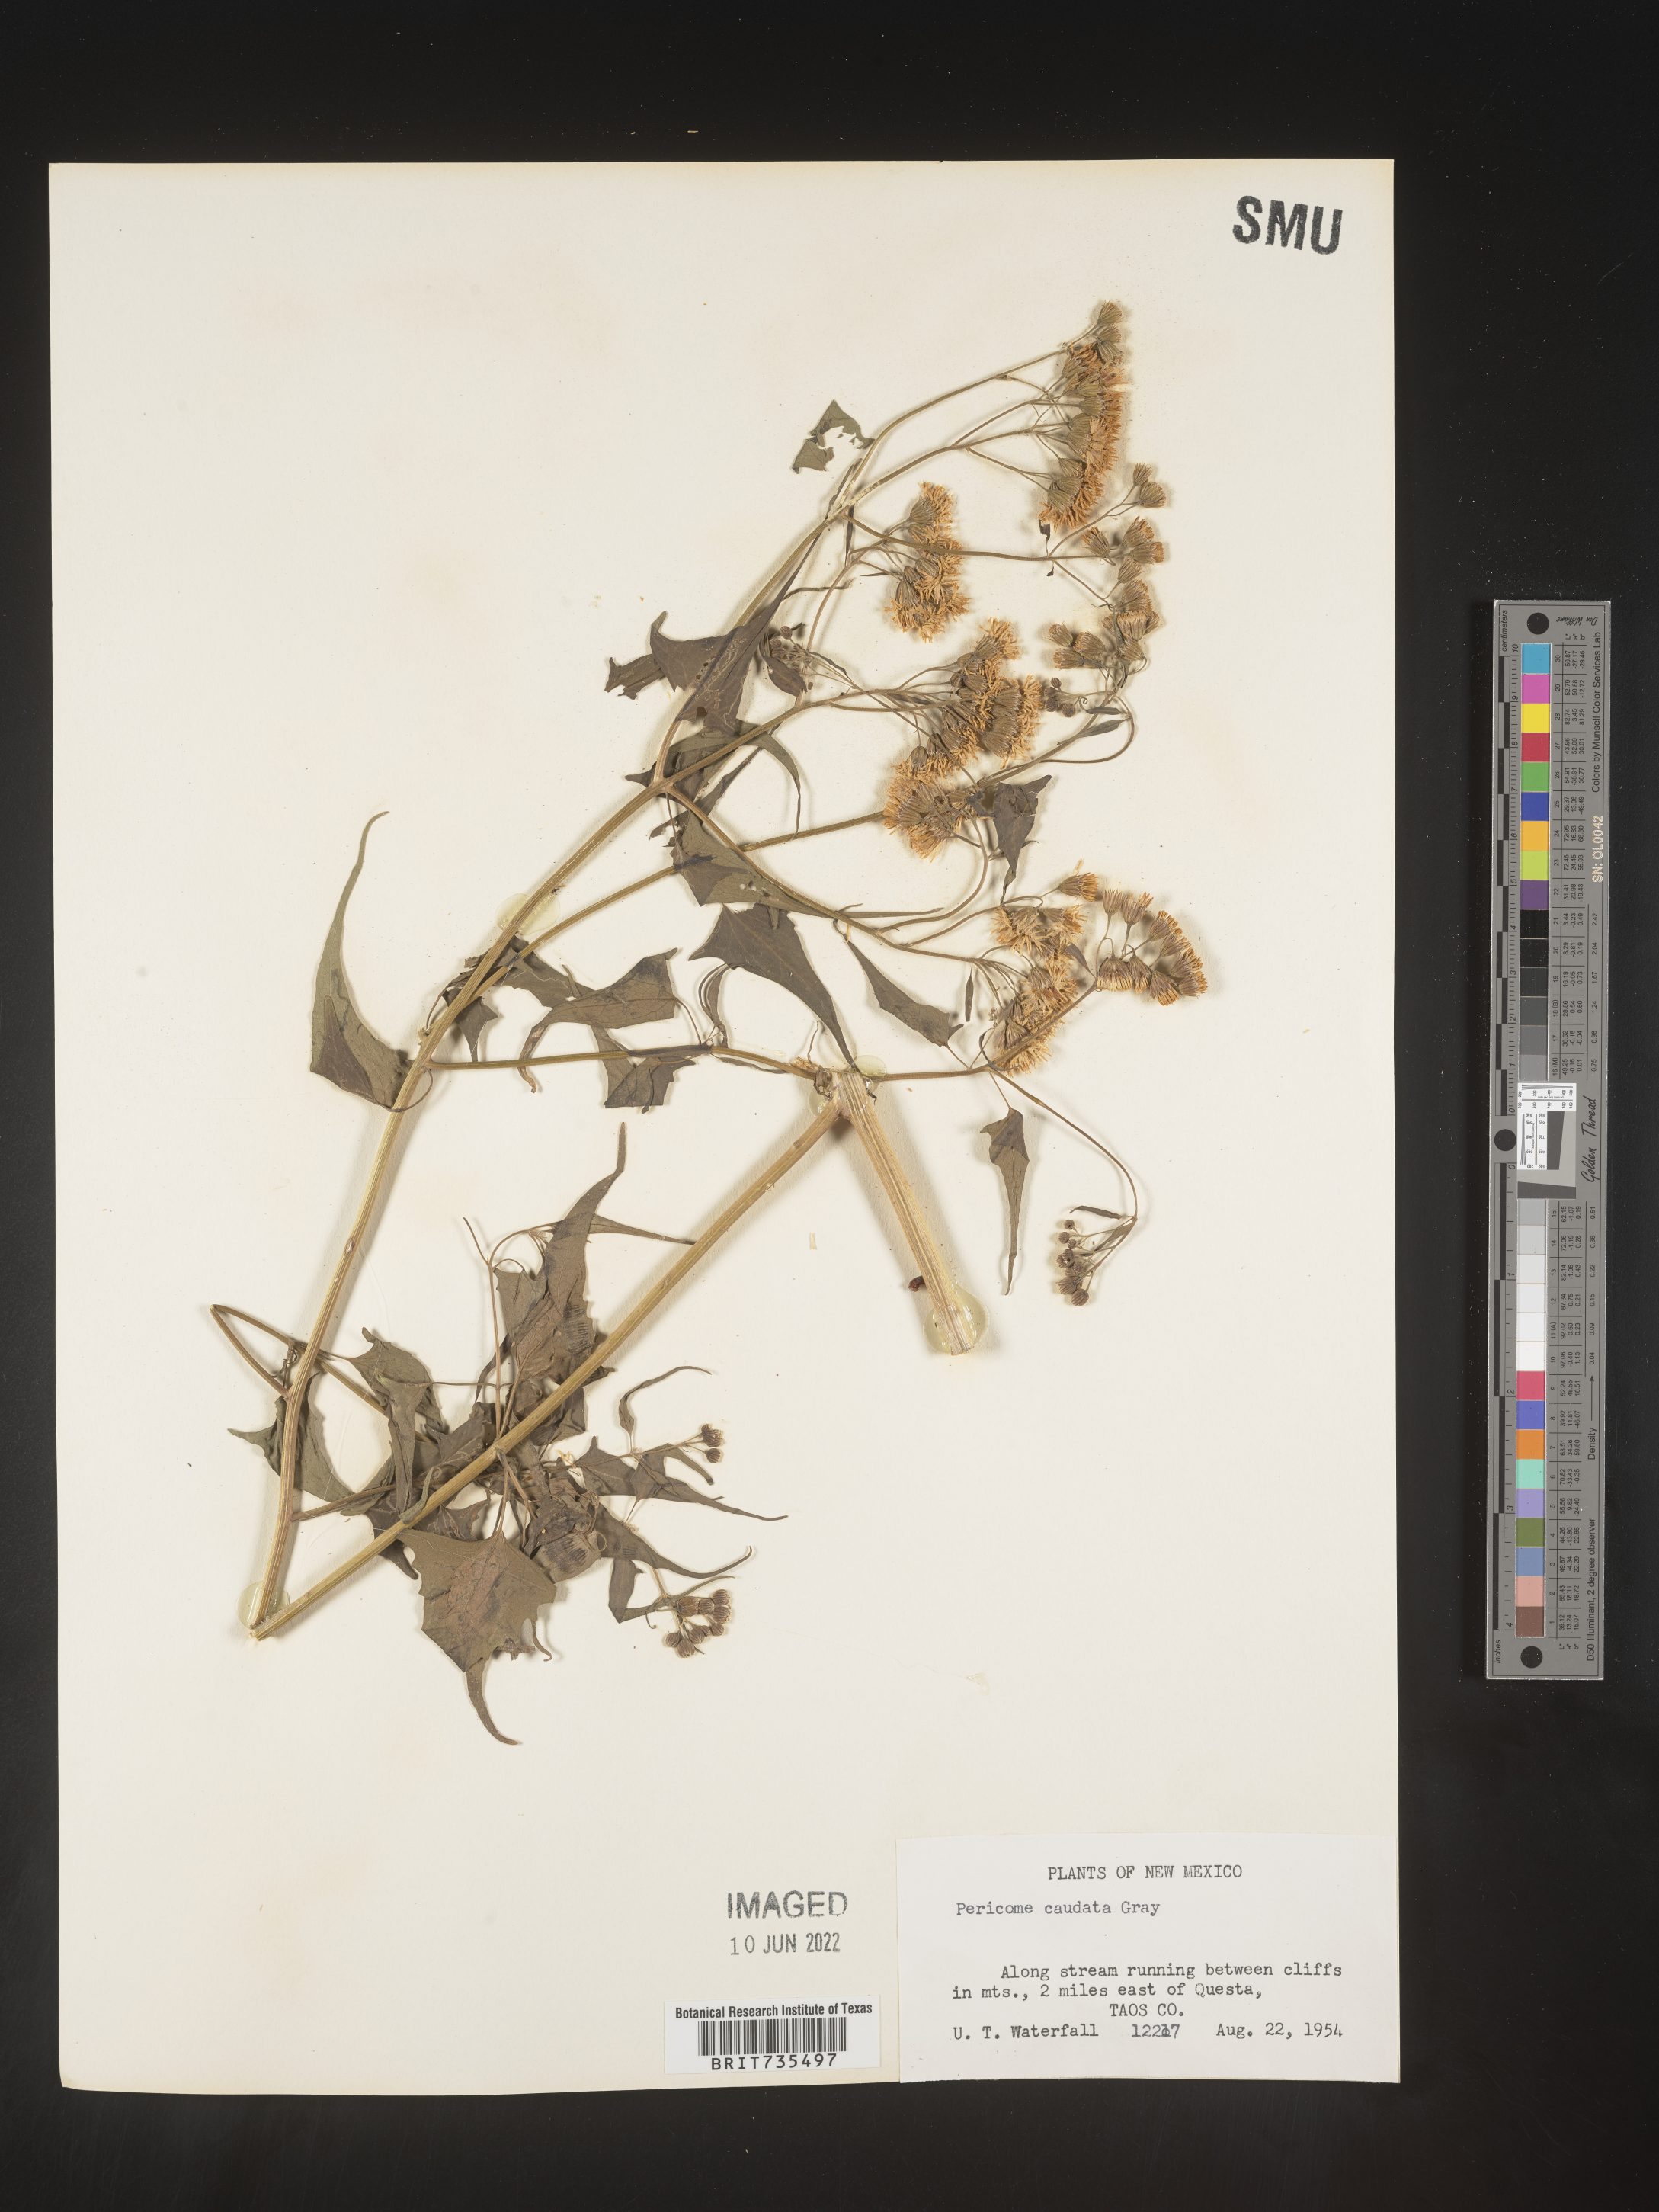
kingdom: Plantae
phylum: Tracheophyta
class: Magnoliopsida
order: Asterales
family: Asteraceae
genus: Pericome
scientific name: Pericome
